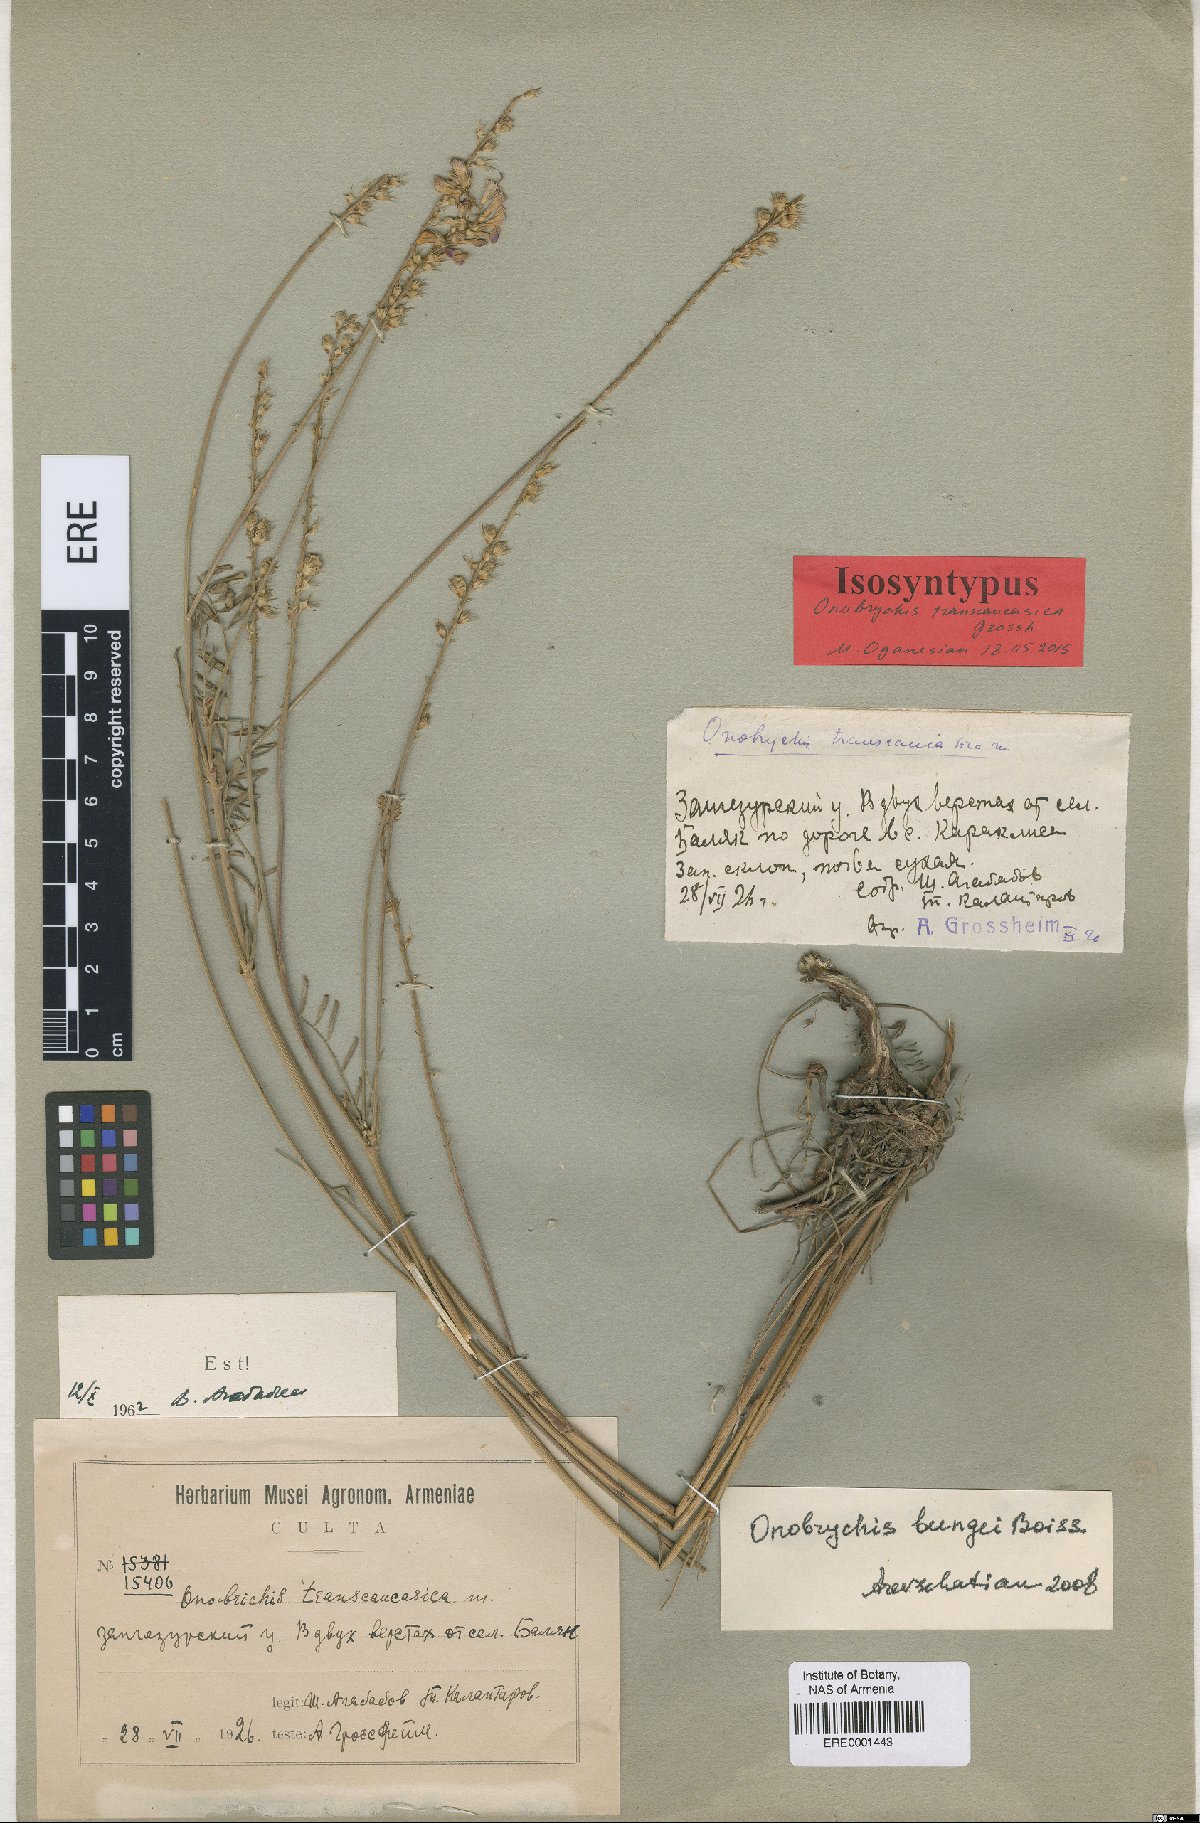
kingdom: Plantae
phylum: Tracheophyta
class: Magnoliopsida
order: Fabales
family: Fabaceae
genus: Onobrychis
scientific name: Onobrychis transcaucasica
